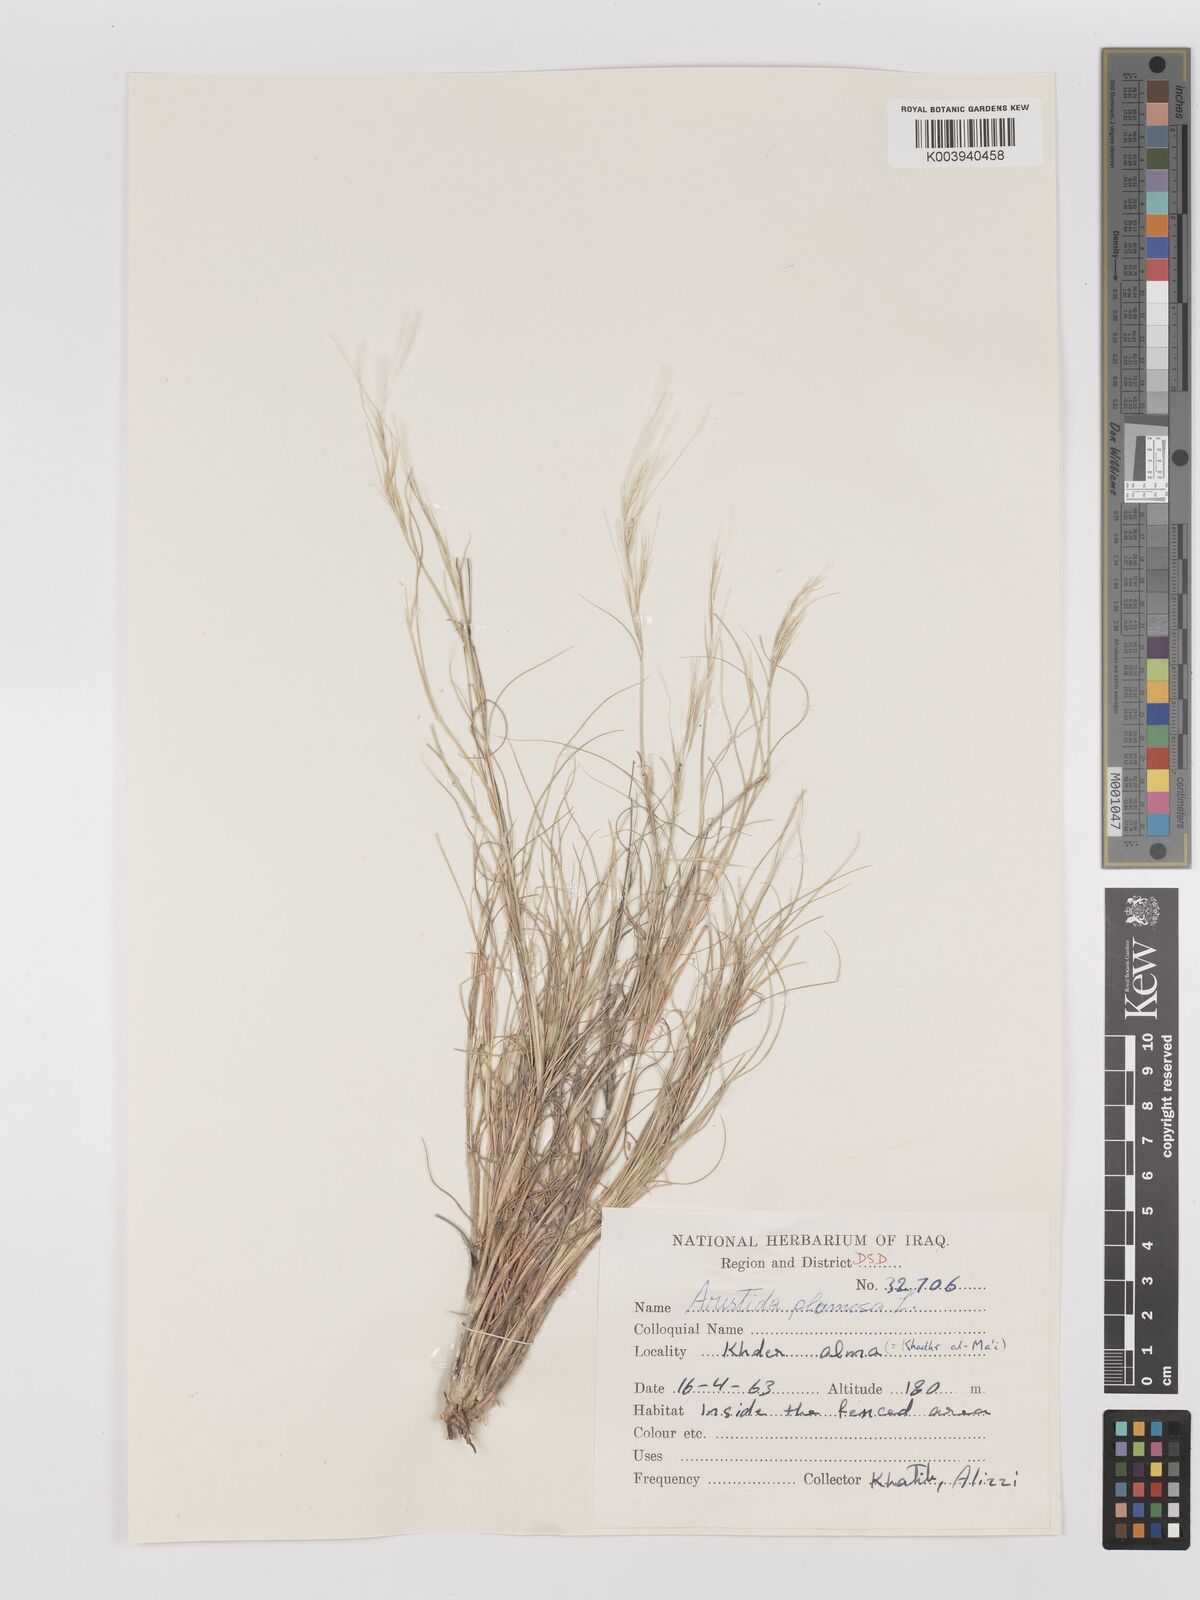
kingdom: Plantae
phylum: Tracheophyta
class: Liliopsida
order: Poales
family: Poaceae
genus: Stipagrostis
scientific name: Stipagrostis plumosa
